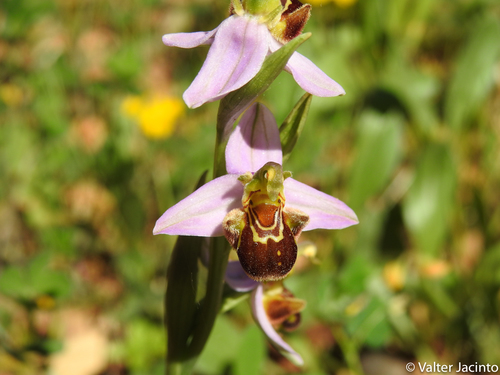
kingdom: Plantae
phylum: Tracheophyta
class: Liliopsida
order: Asparagales
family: Orchidaceae
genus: Ophrys
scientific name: Ophrys apifera
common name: Bee orchid
